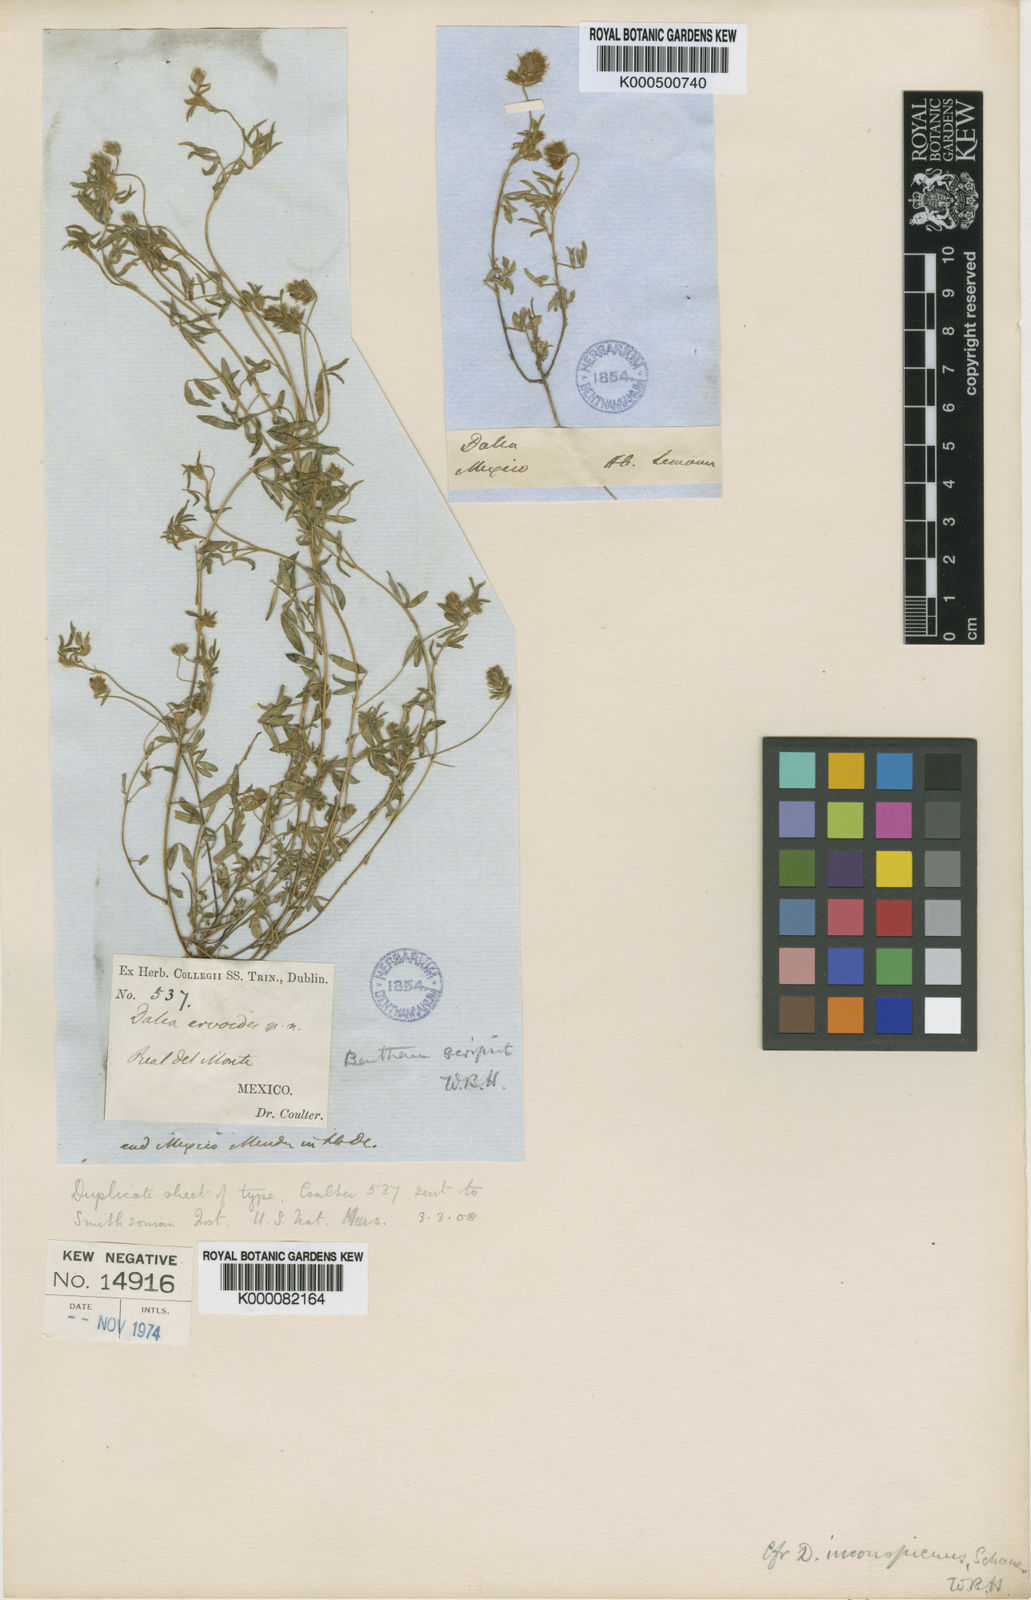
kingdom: Plantae
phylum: Tracheophyta
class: Magnoliopsida
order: Fabales
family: Fabaceae
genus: Dalea
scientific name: Dalea humilis
